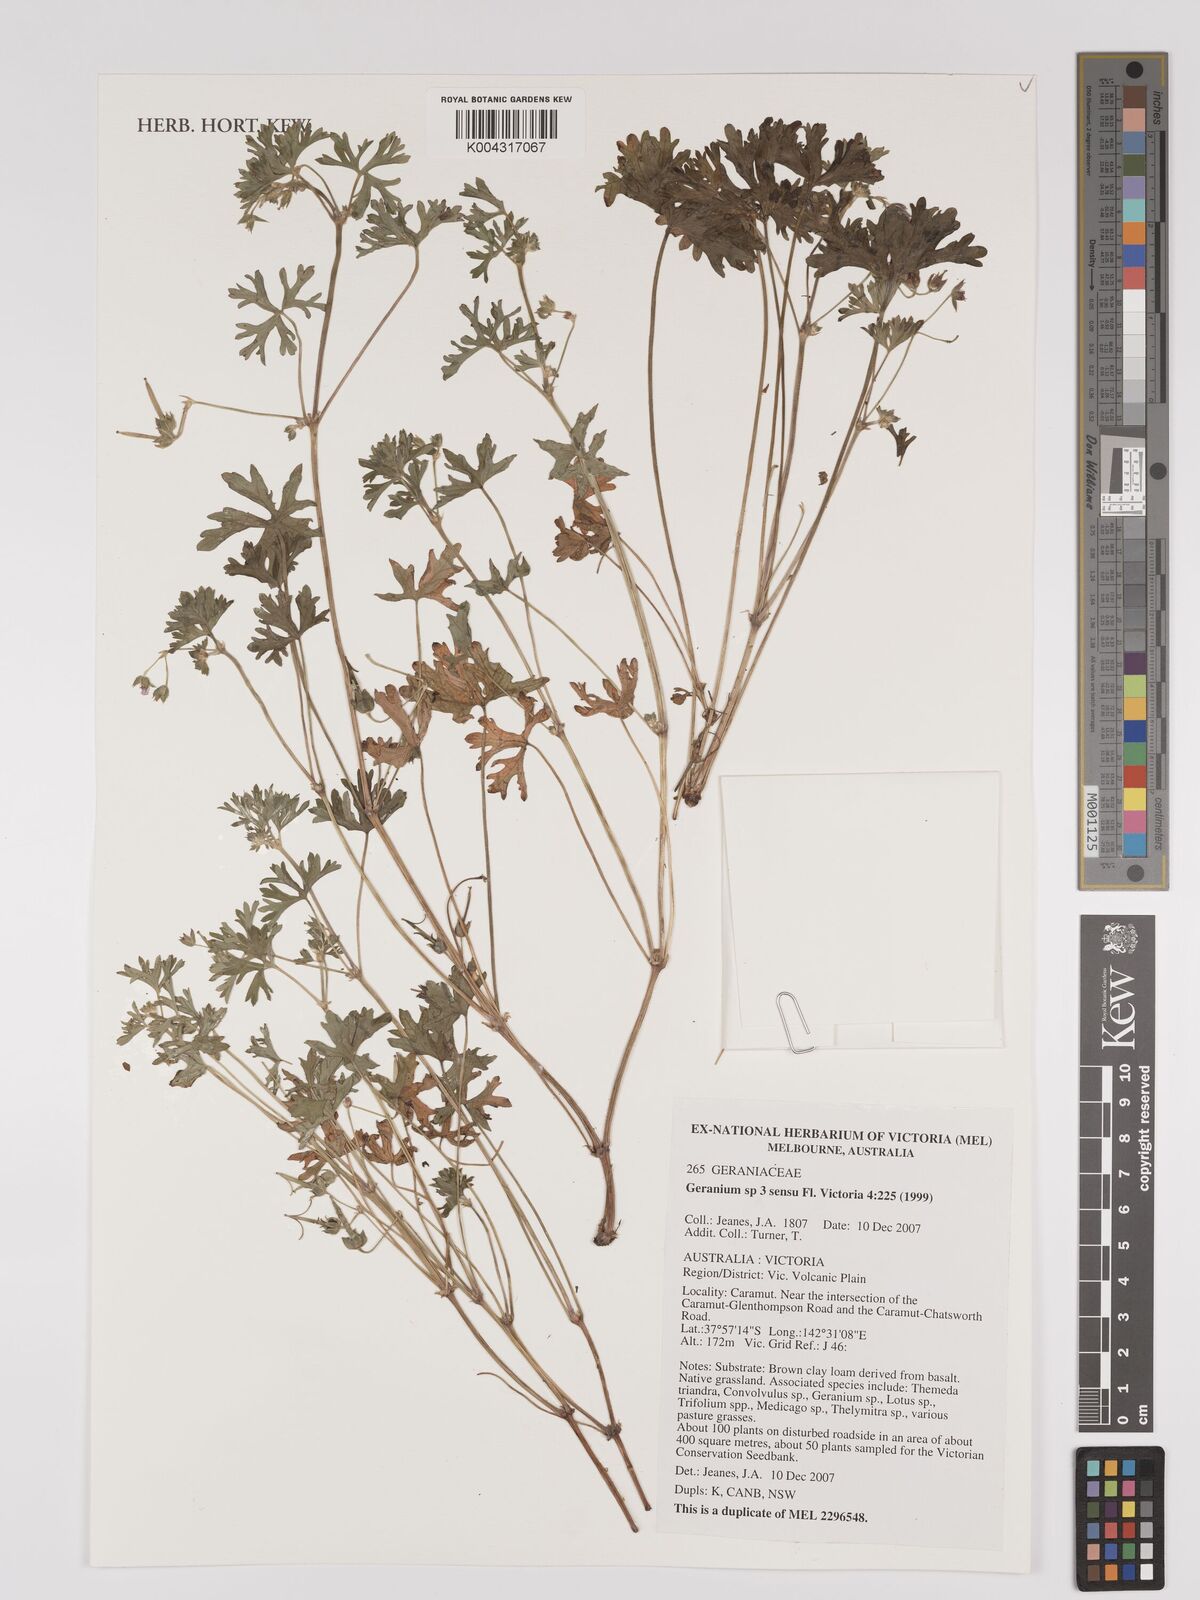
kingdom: Plantae
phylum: Tracheophyta
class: Magnoliopsida
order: Geraniales
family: Geraniaceae
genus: Geranium
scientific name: Geranium
